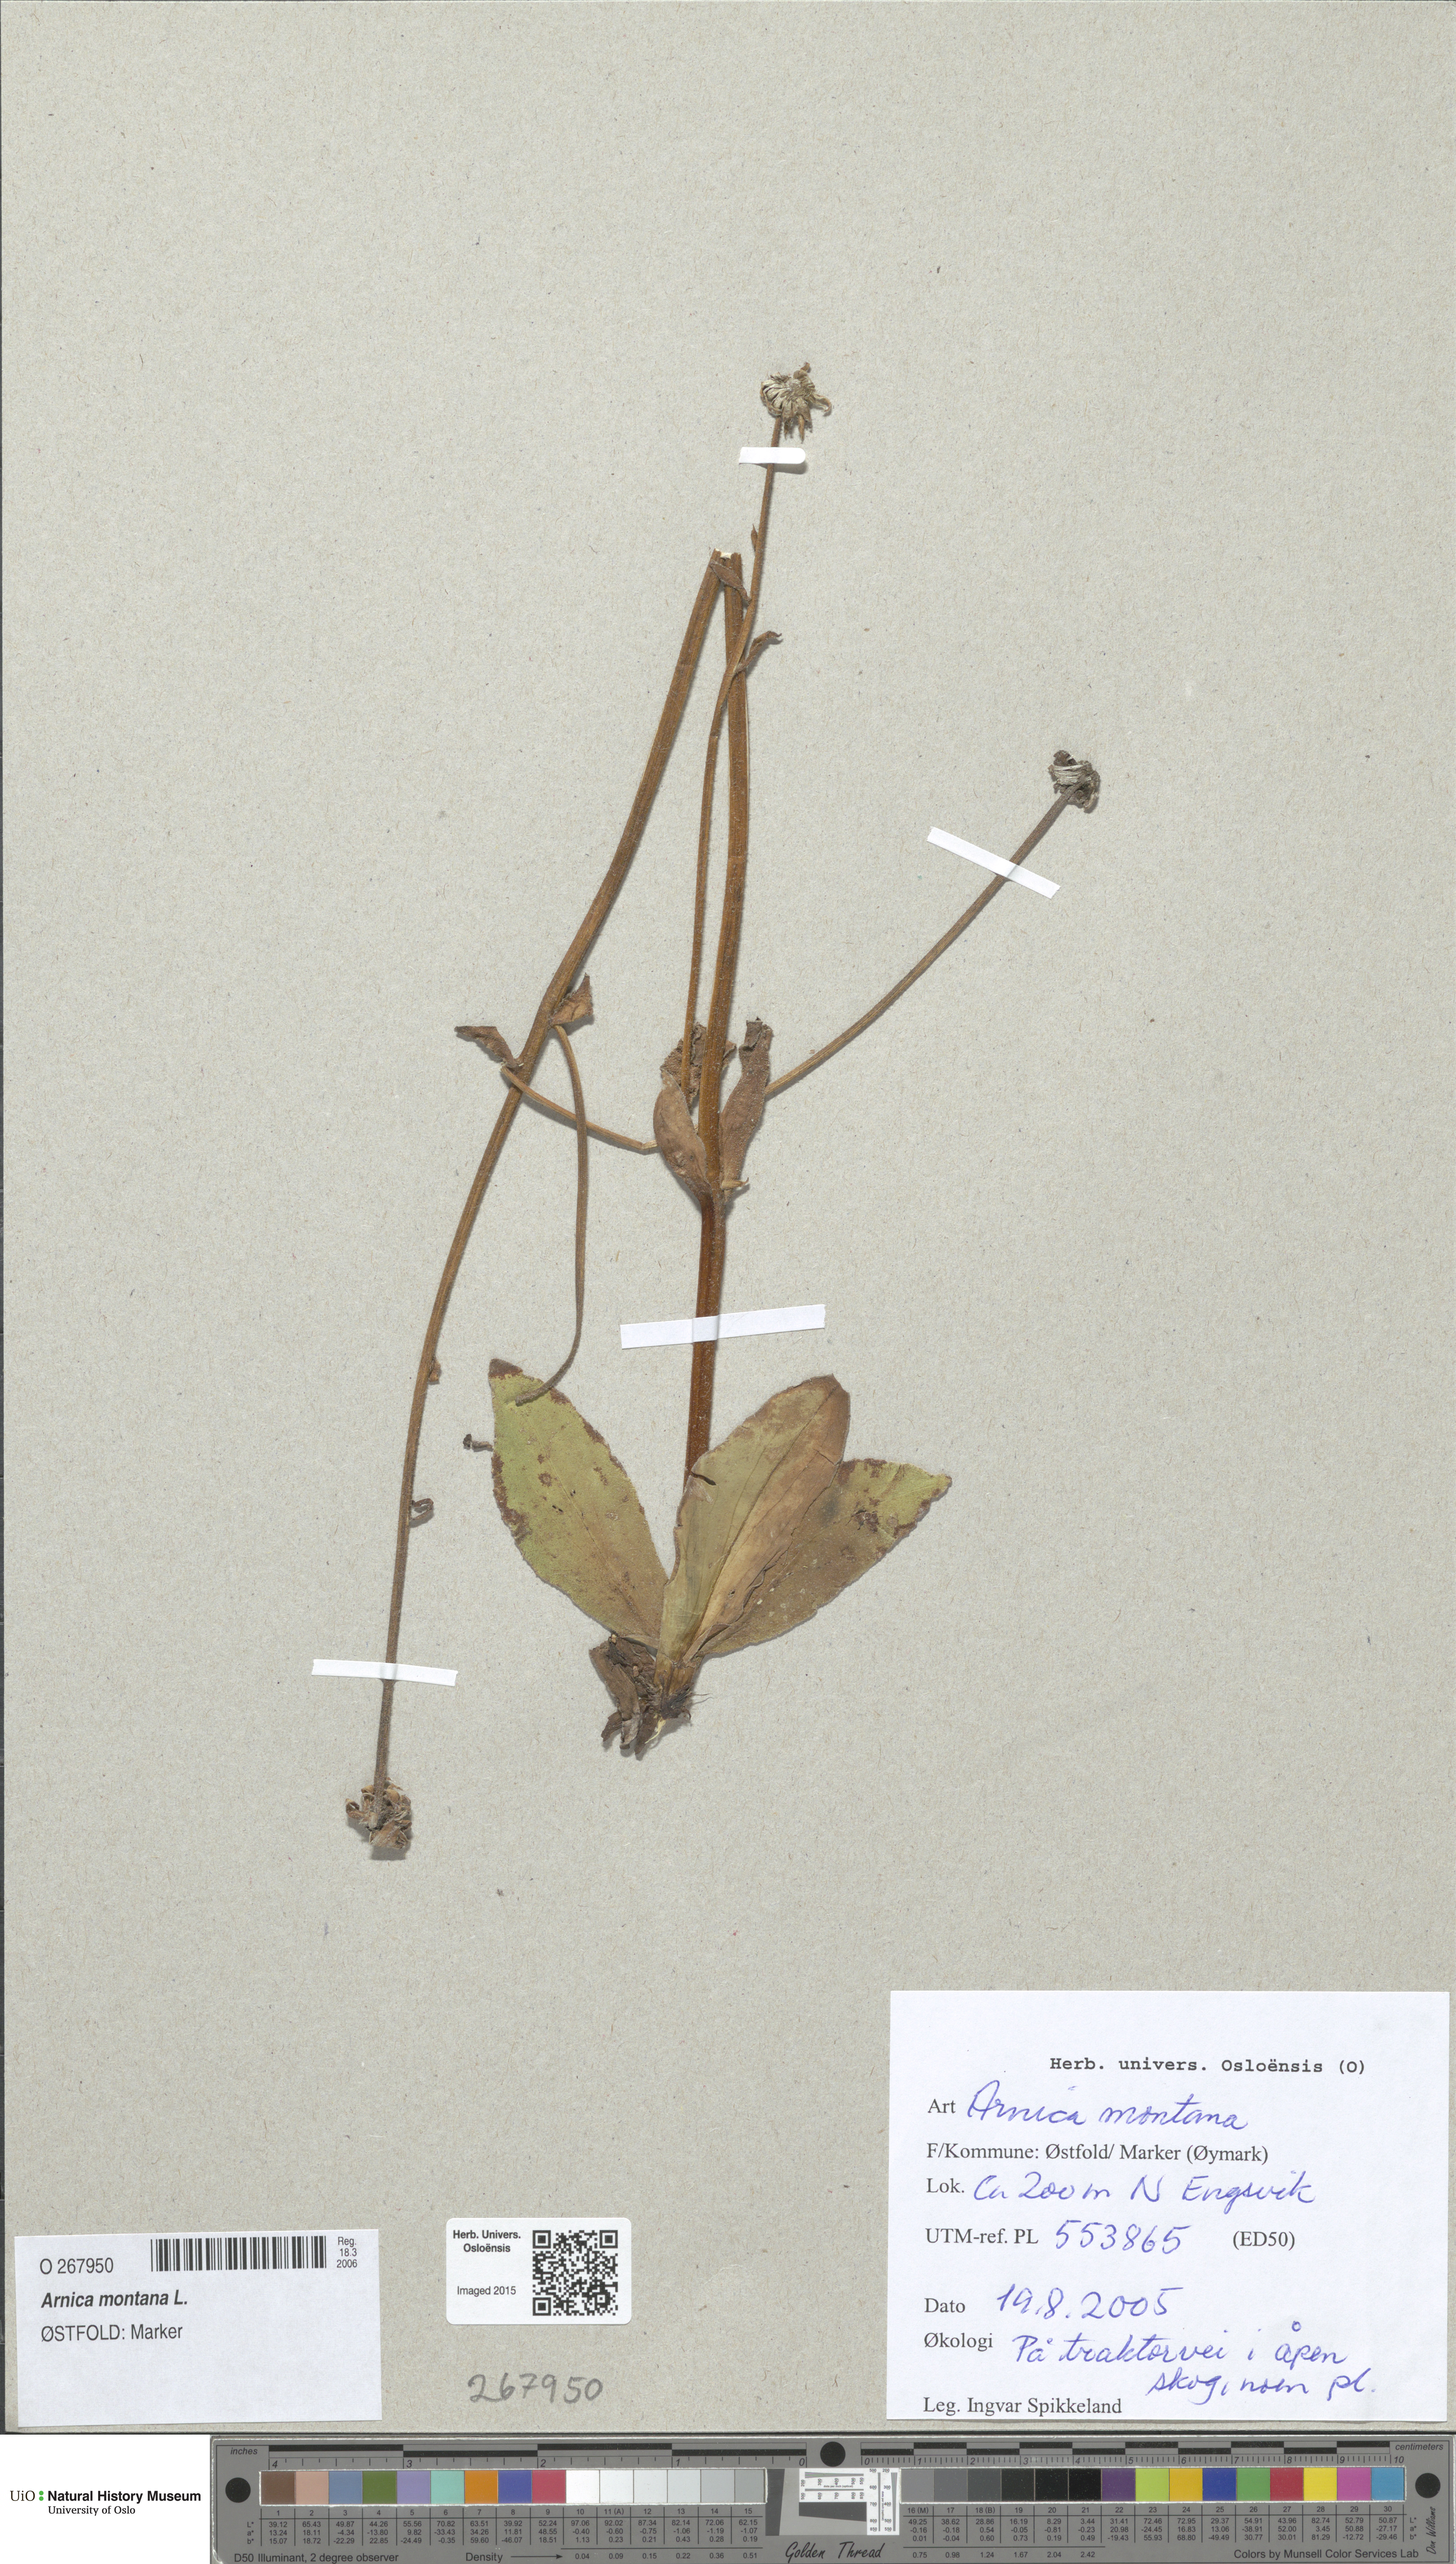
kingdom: Plantae
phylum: Tracheophyta
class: Magnoliopsida
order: Asterales
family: Asteraceae
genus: Arnica
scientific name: Arnica montana
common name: Leopard's bane
